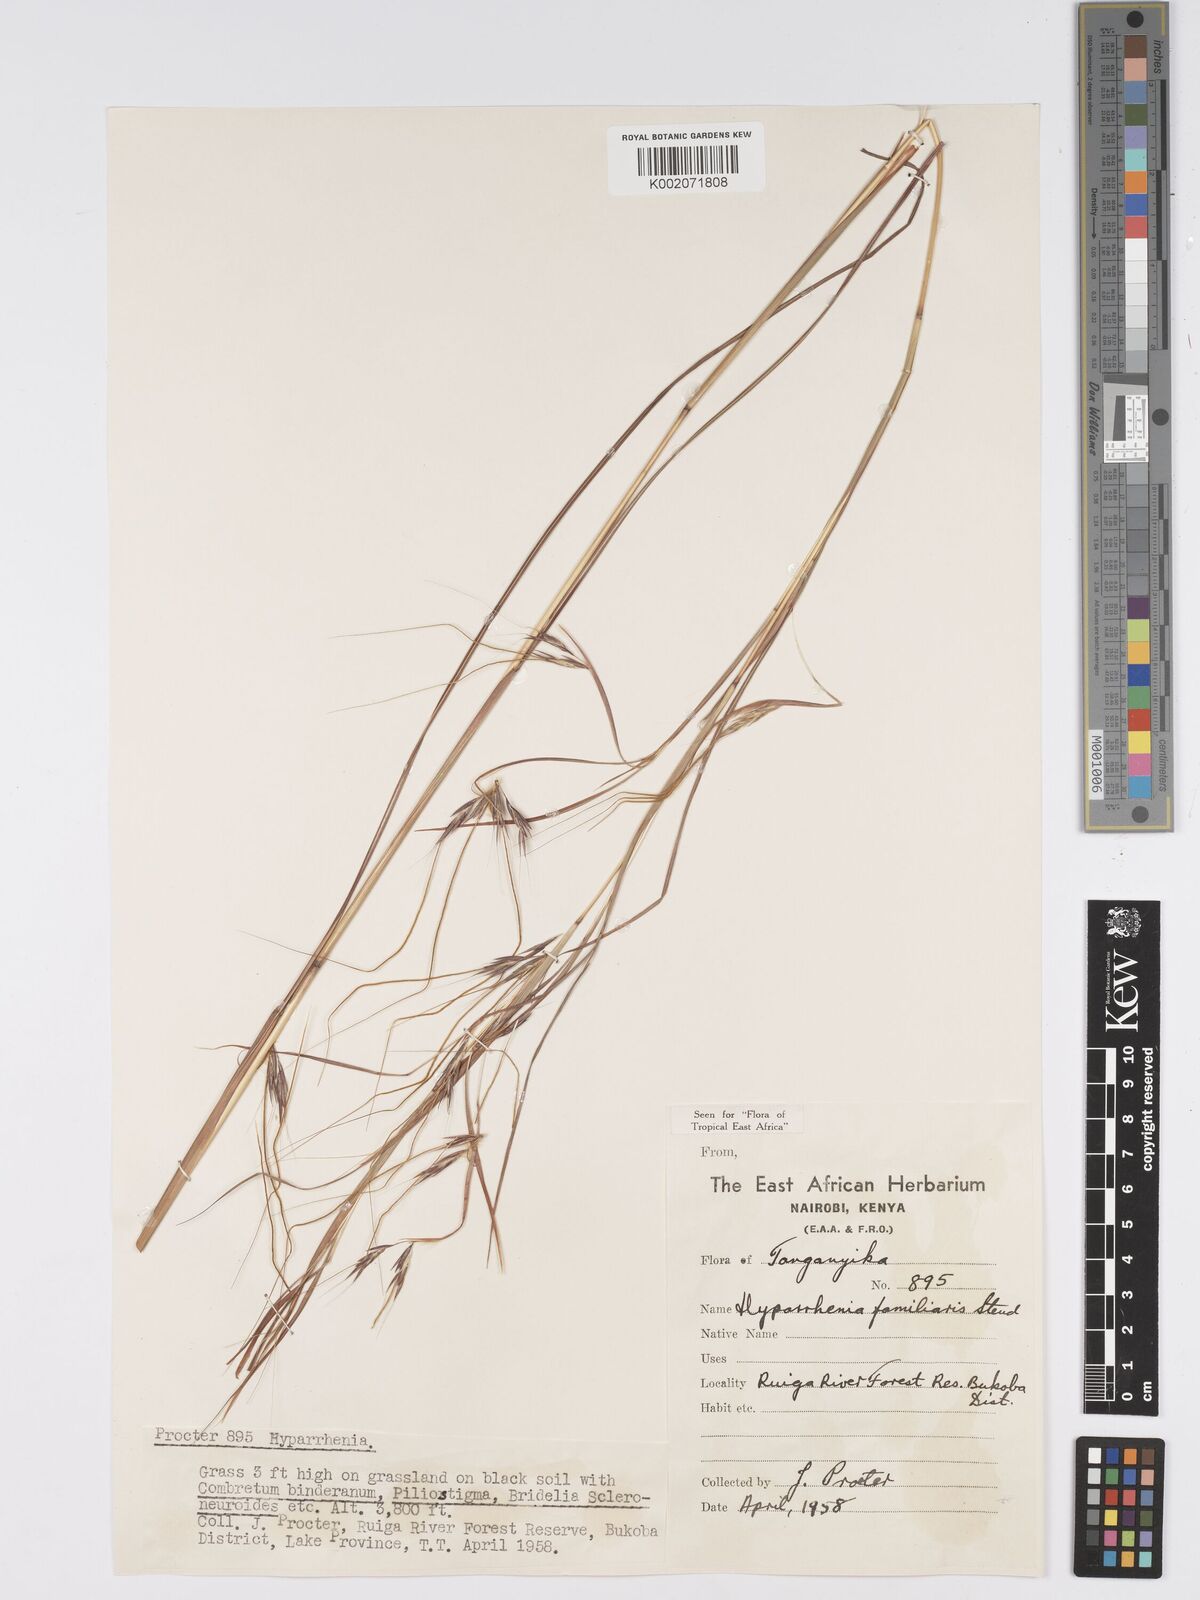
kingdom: Plantae
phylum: Tracheophyta
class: Liliopsida
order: Poales
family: Poaceae
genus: Hyparrhenia
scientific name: Hyparrhenia familiaris
